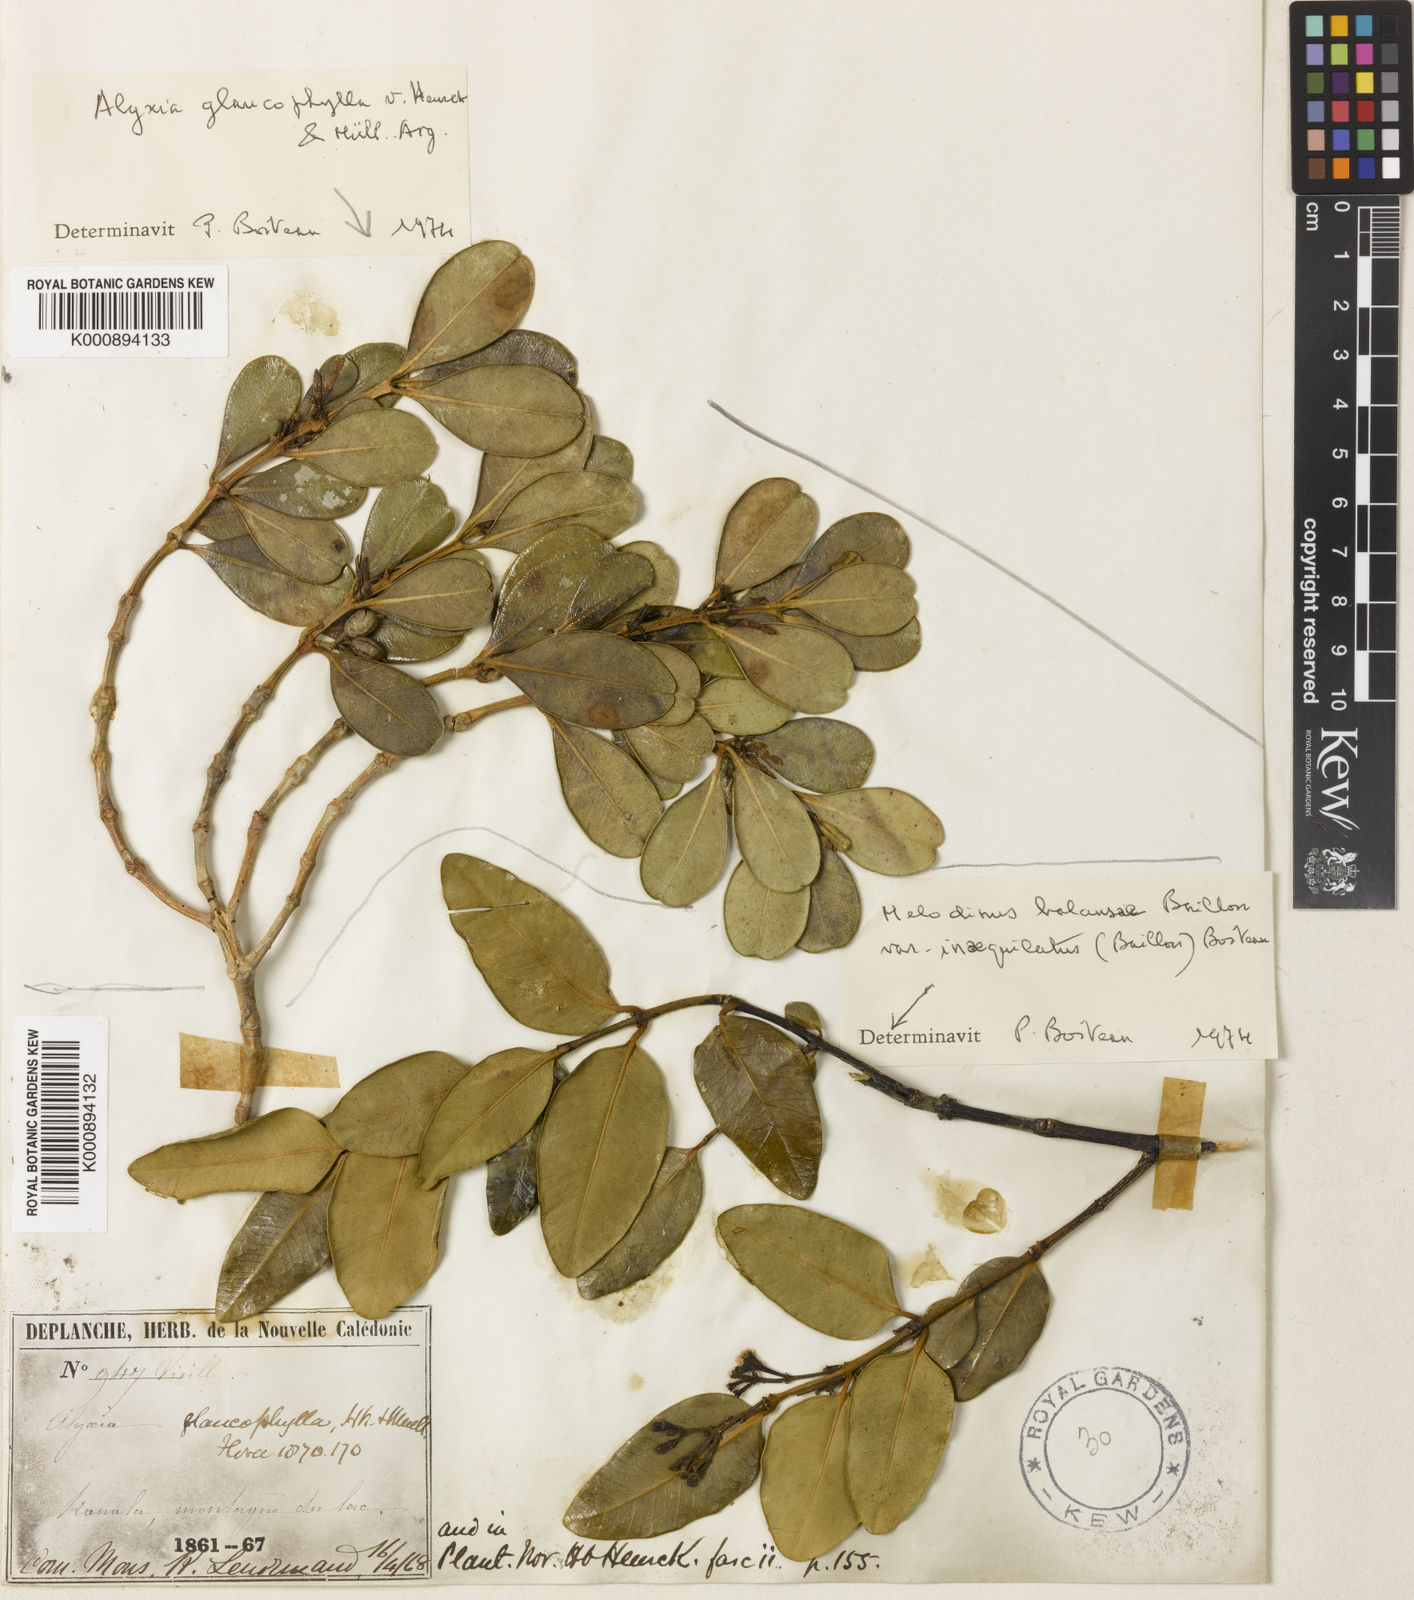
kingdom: Plantae
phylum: Tracheophyta
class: Magnoliopsida
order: Gentianales
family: Apocynaceae
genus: Alyxia
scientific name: Alyxia
